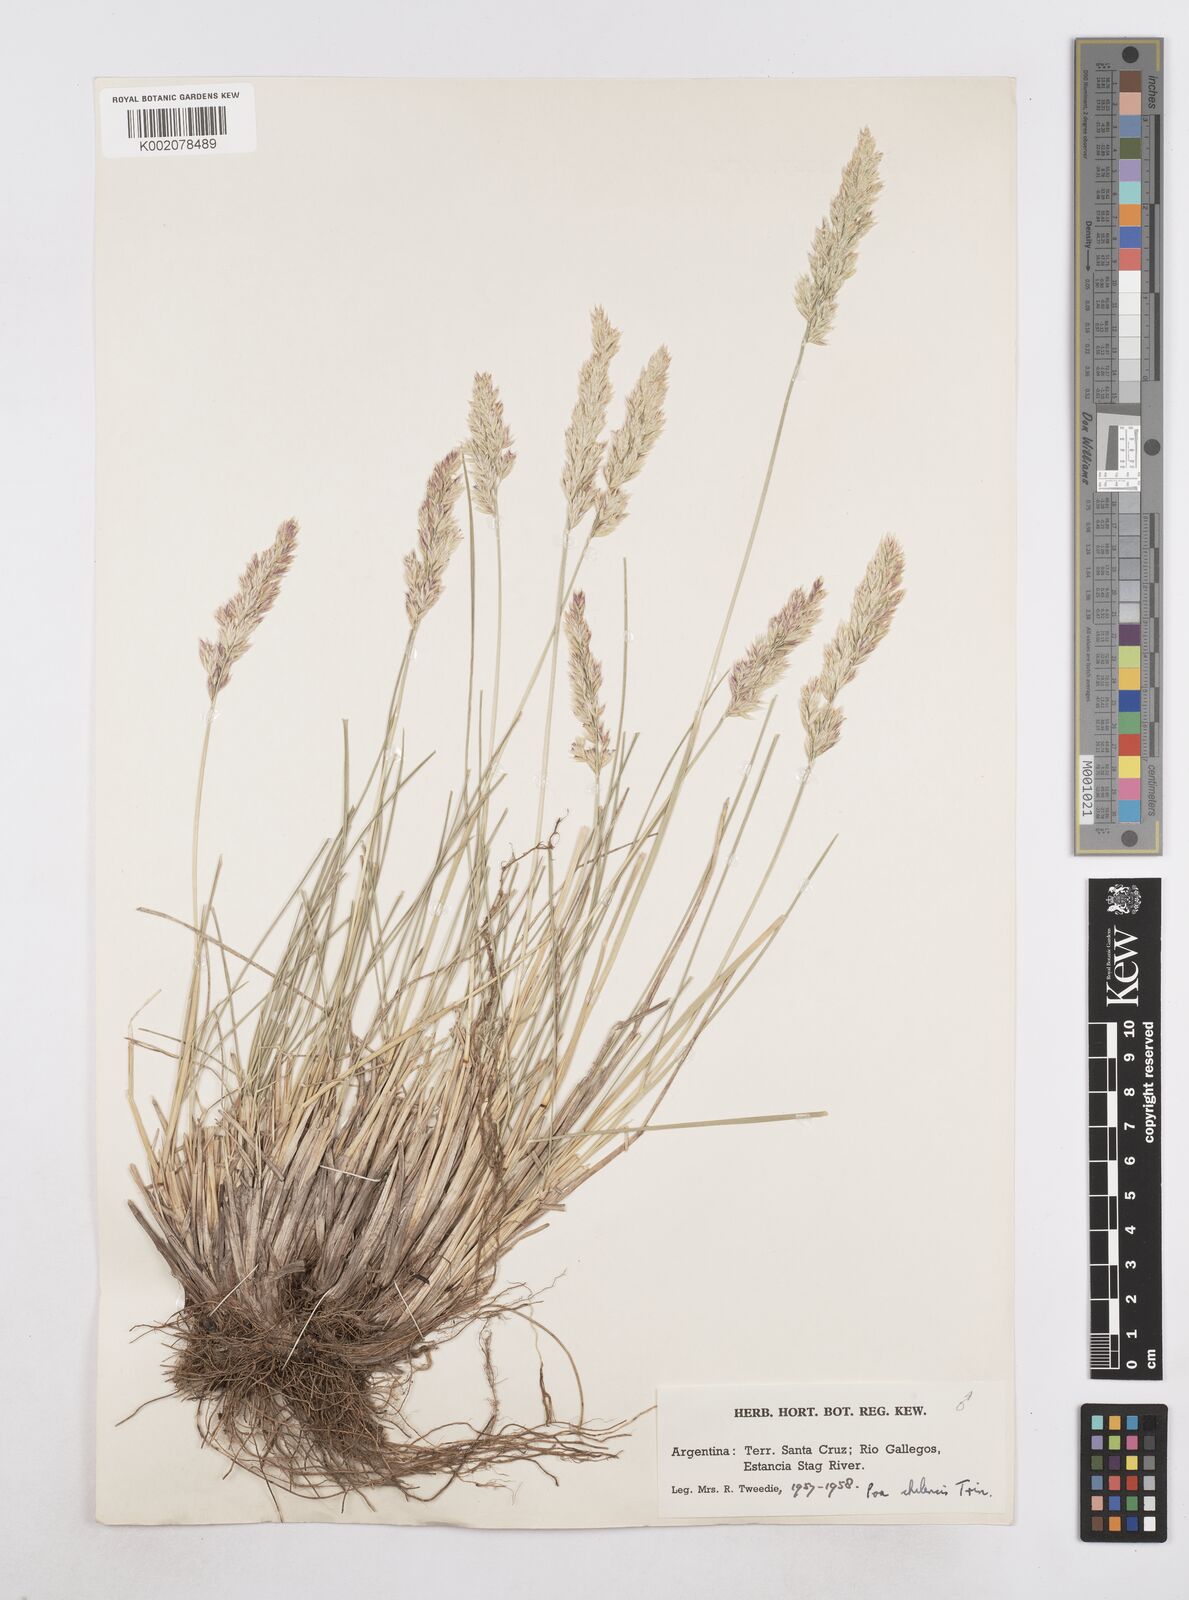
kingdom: Plantae
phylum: Tracheophyta
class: Liliopsida
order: Poales
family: Poaceae
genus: Poa
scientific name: Poa denudata
